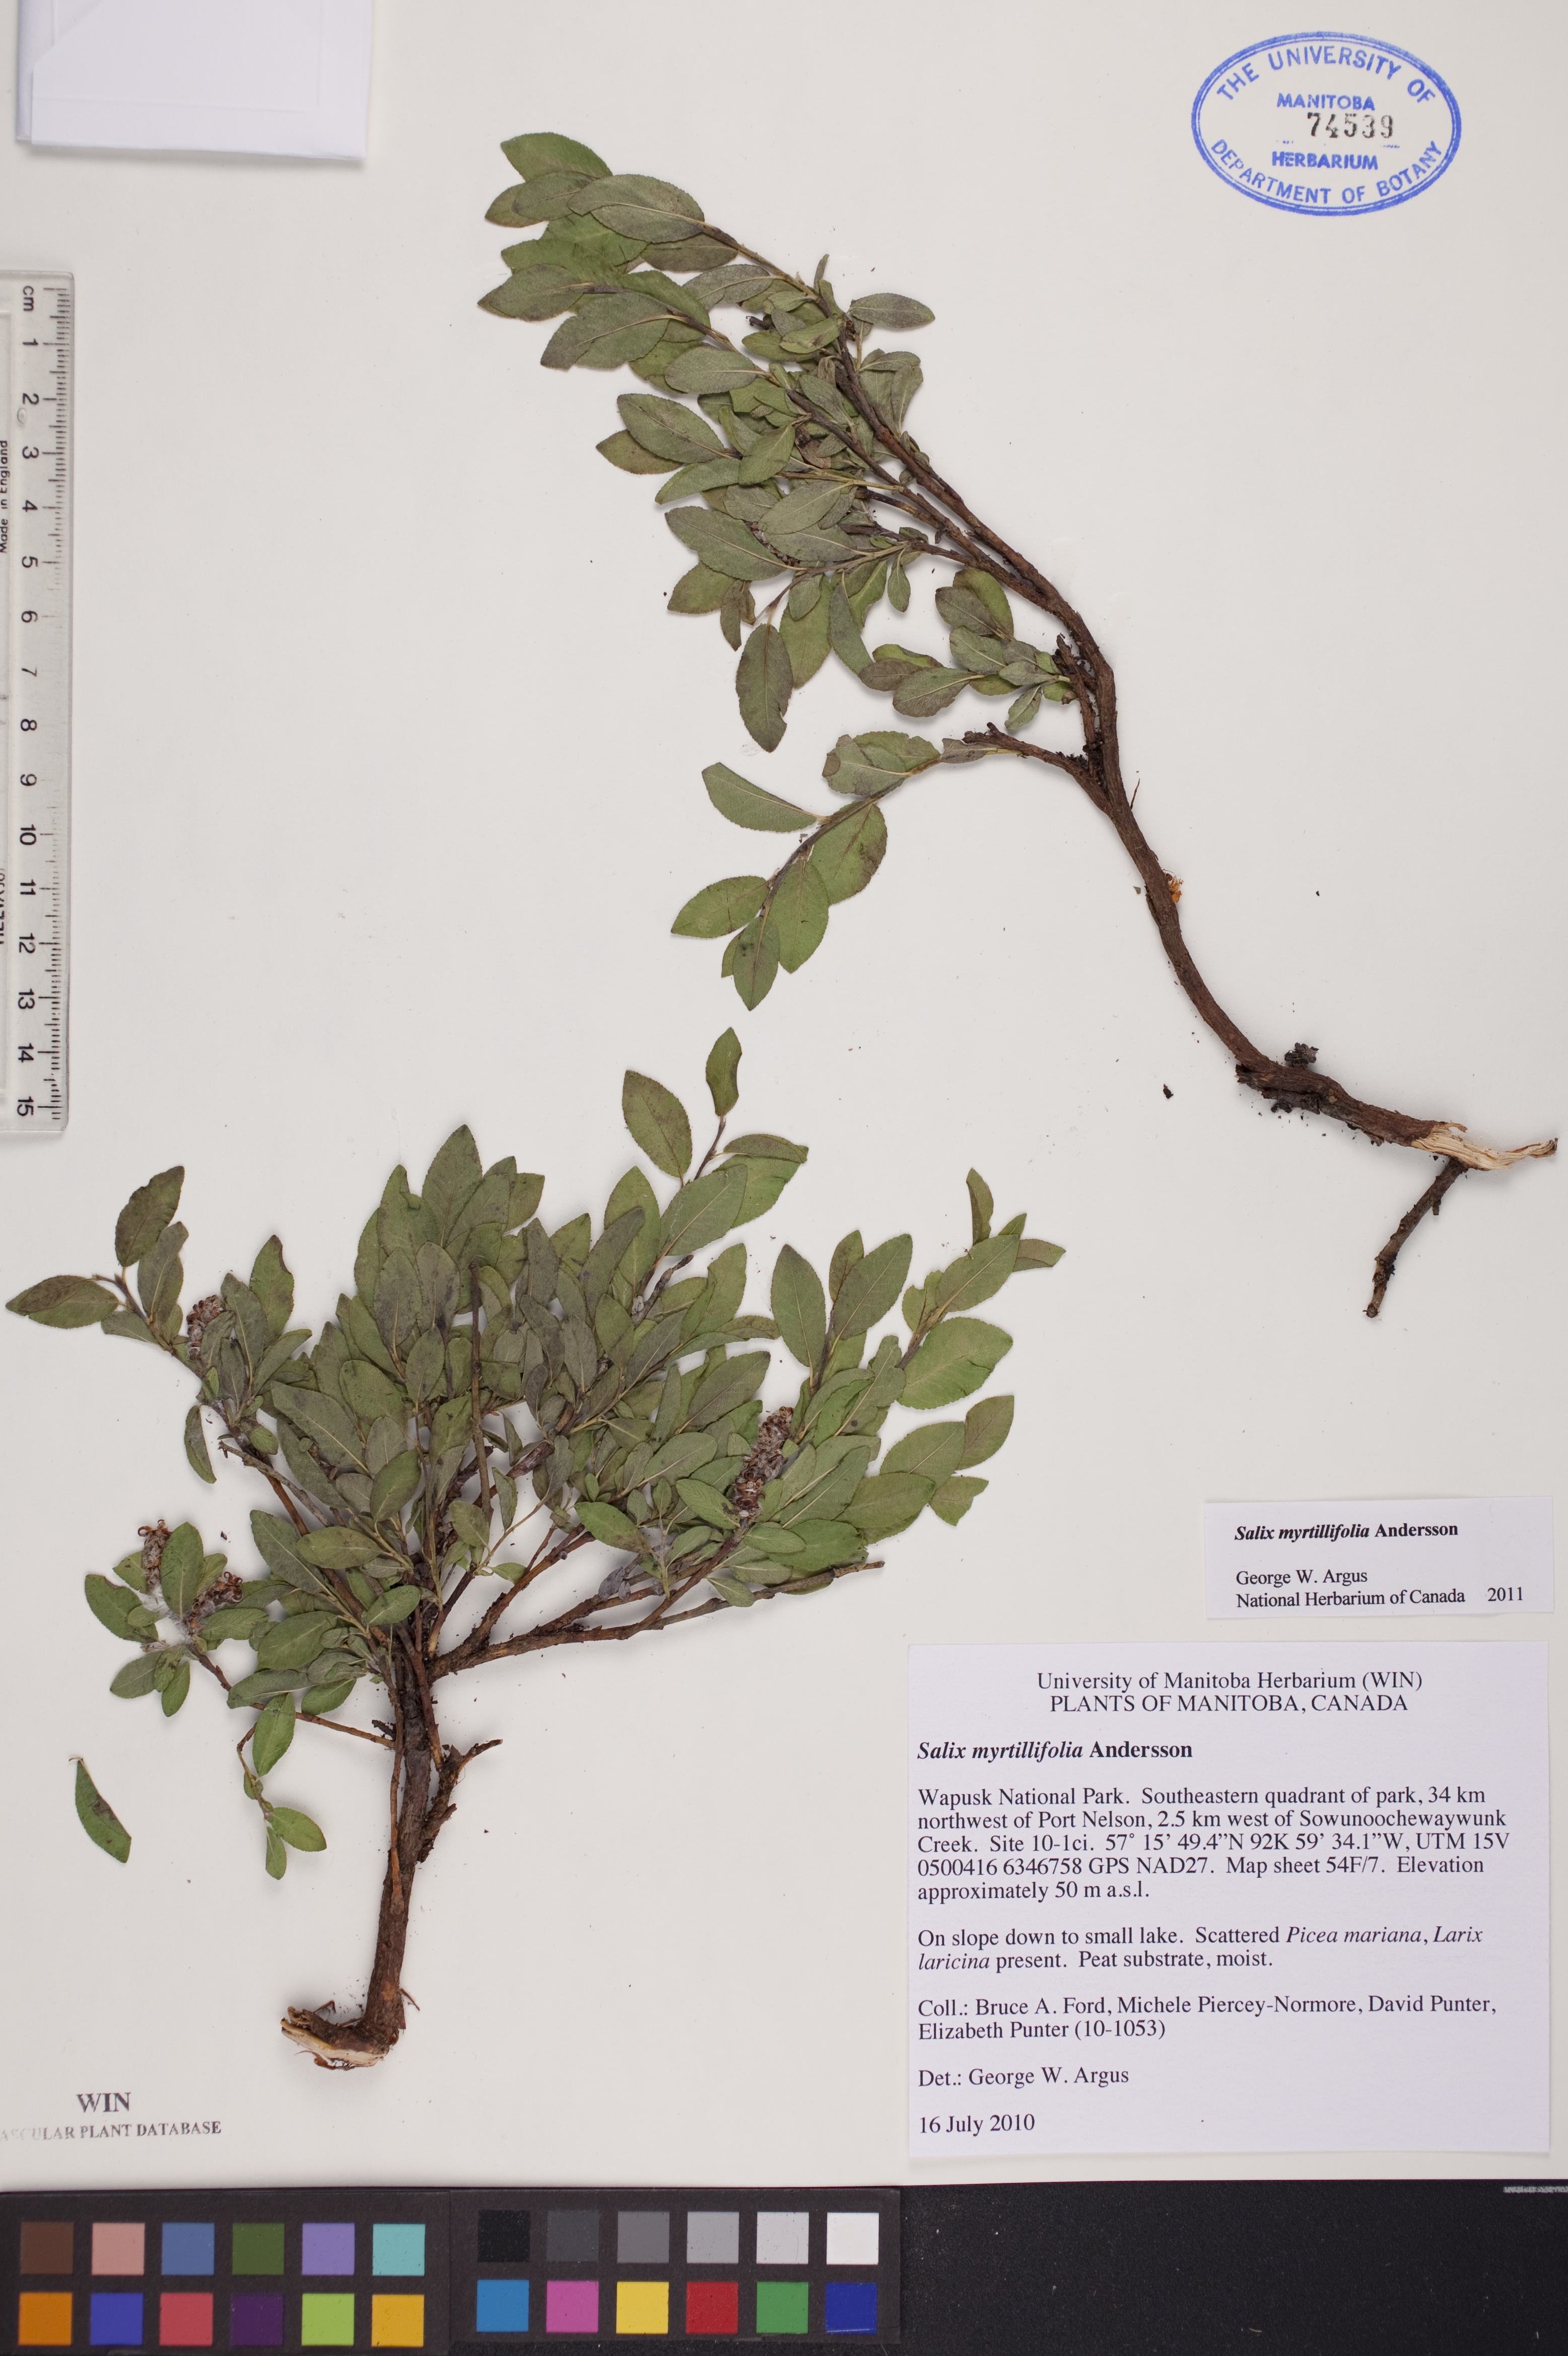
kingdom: Plantae
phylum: Tracheophyta
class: Magnoliopsida
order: Malpighiales
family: Salicaceae
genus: Salix
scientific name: Salix myrtillifolia
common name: Bilberry willow
